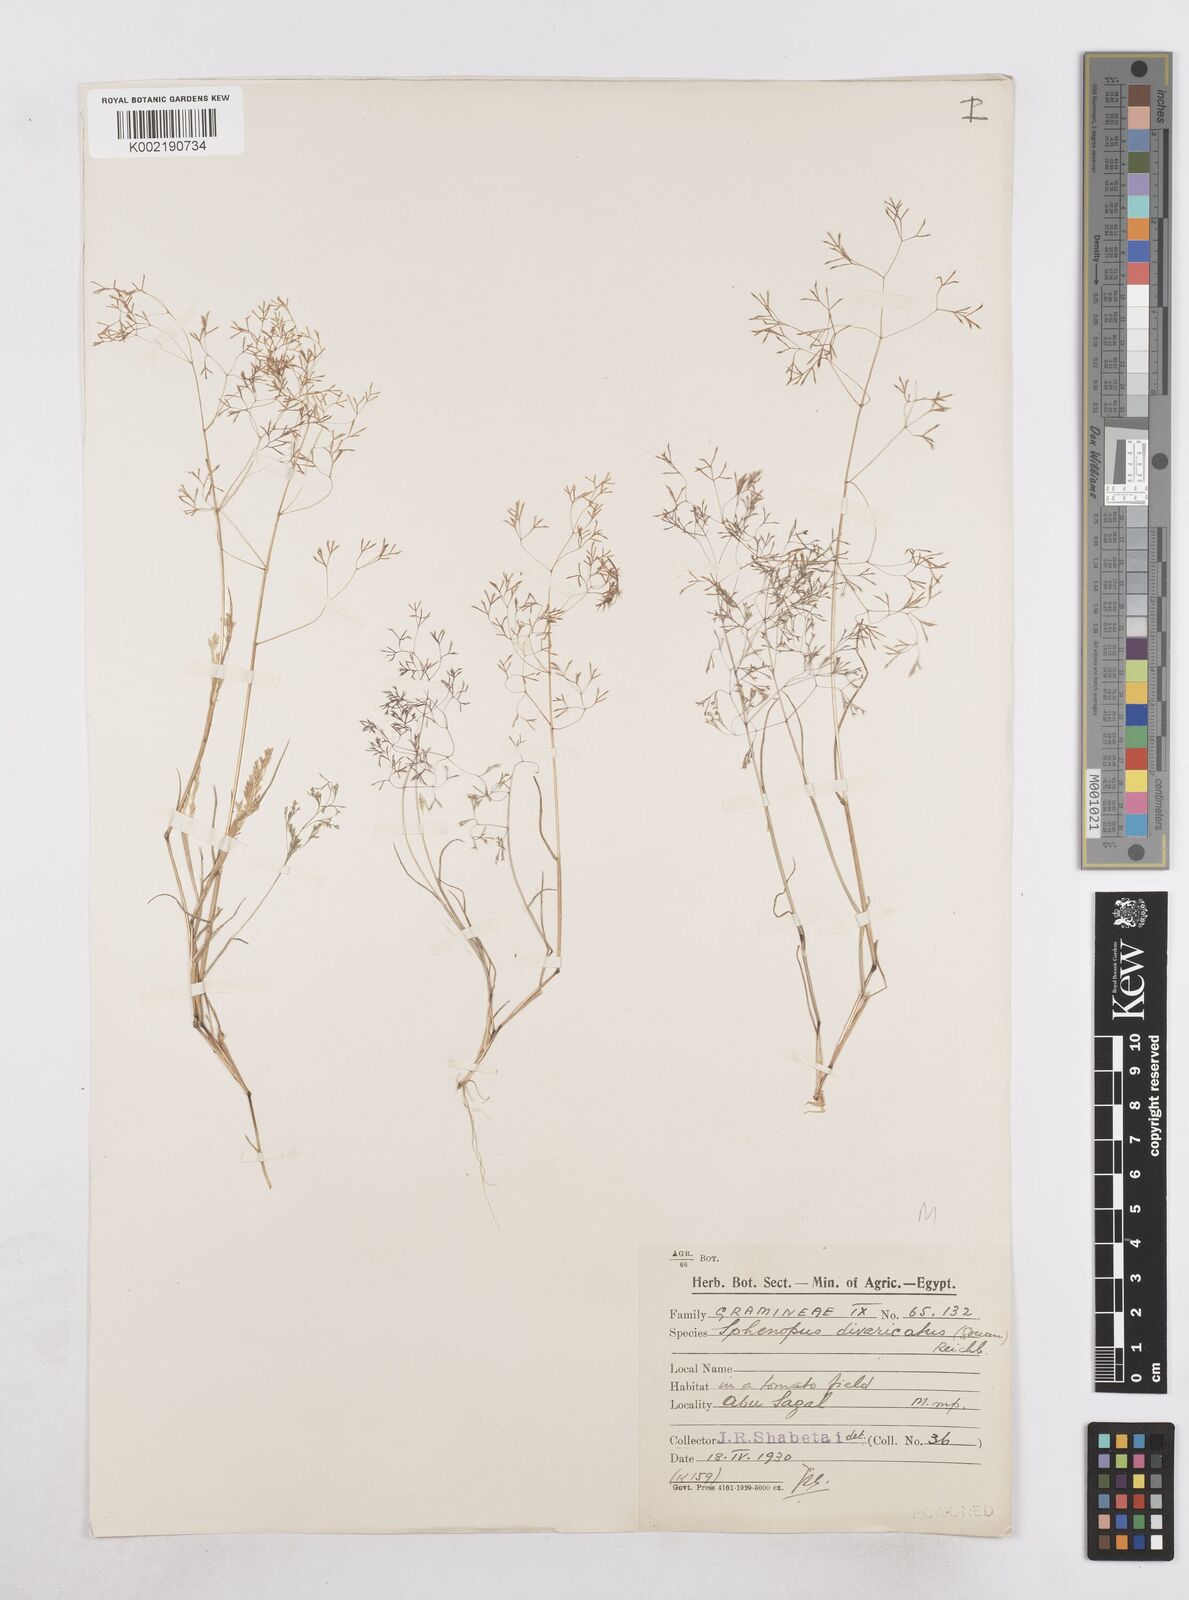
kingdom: Plantae
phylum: Tracheophyta
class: Liliopsida
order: Poales
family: Poaceae
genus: Sphenopus
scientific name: Sphenopus divaricatus
